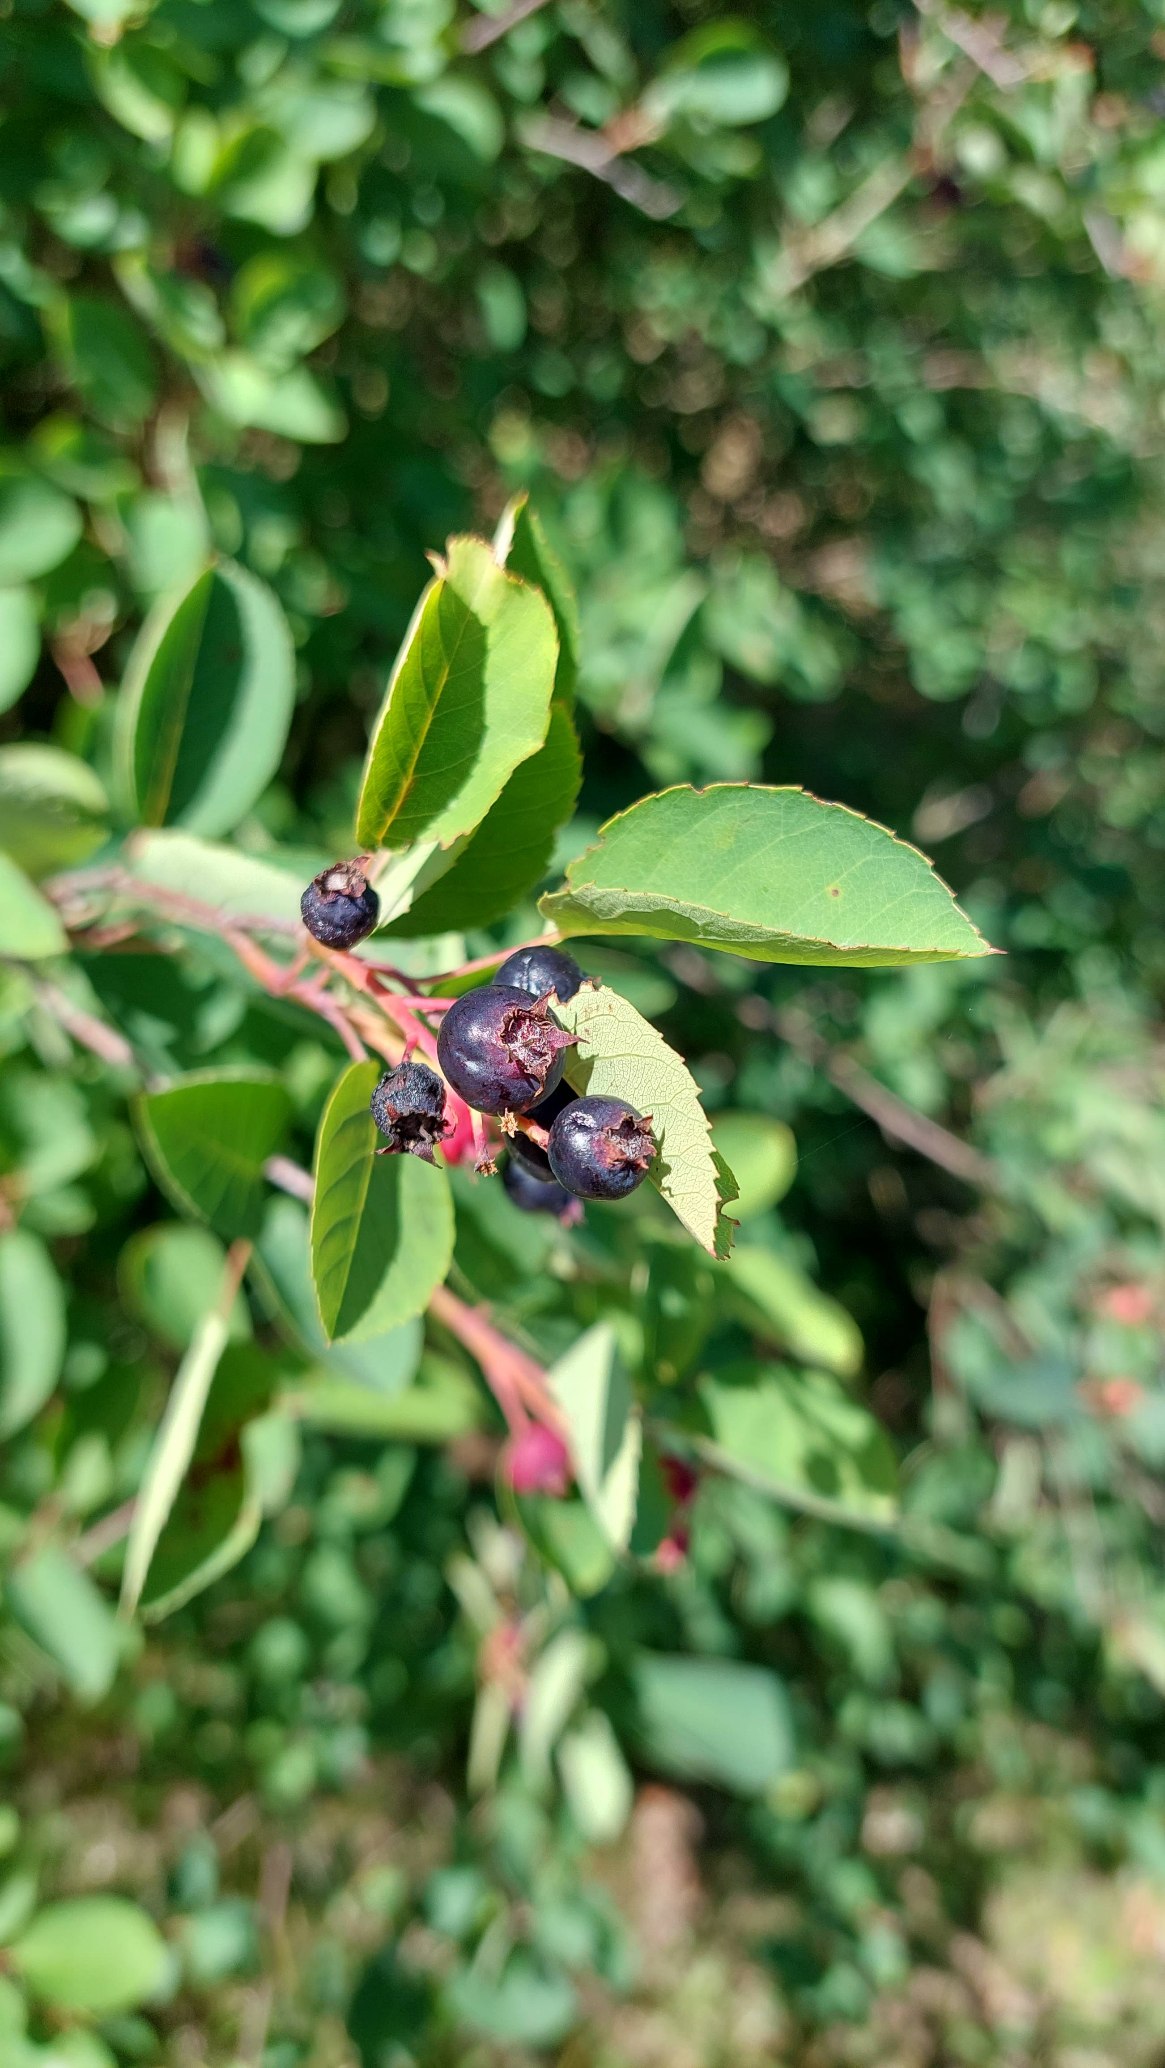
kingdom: Plantae
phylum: Tracheophyta
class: Magnoliopsida
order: Rosales
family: Rosaceae
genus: Amelanchier
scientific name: Amelanchier lamarckii
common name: Langstilket bærmispel
